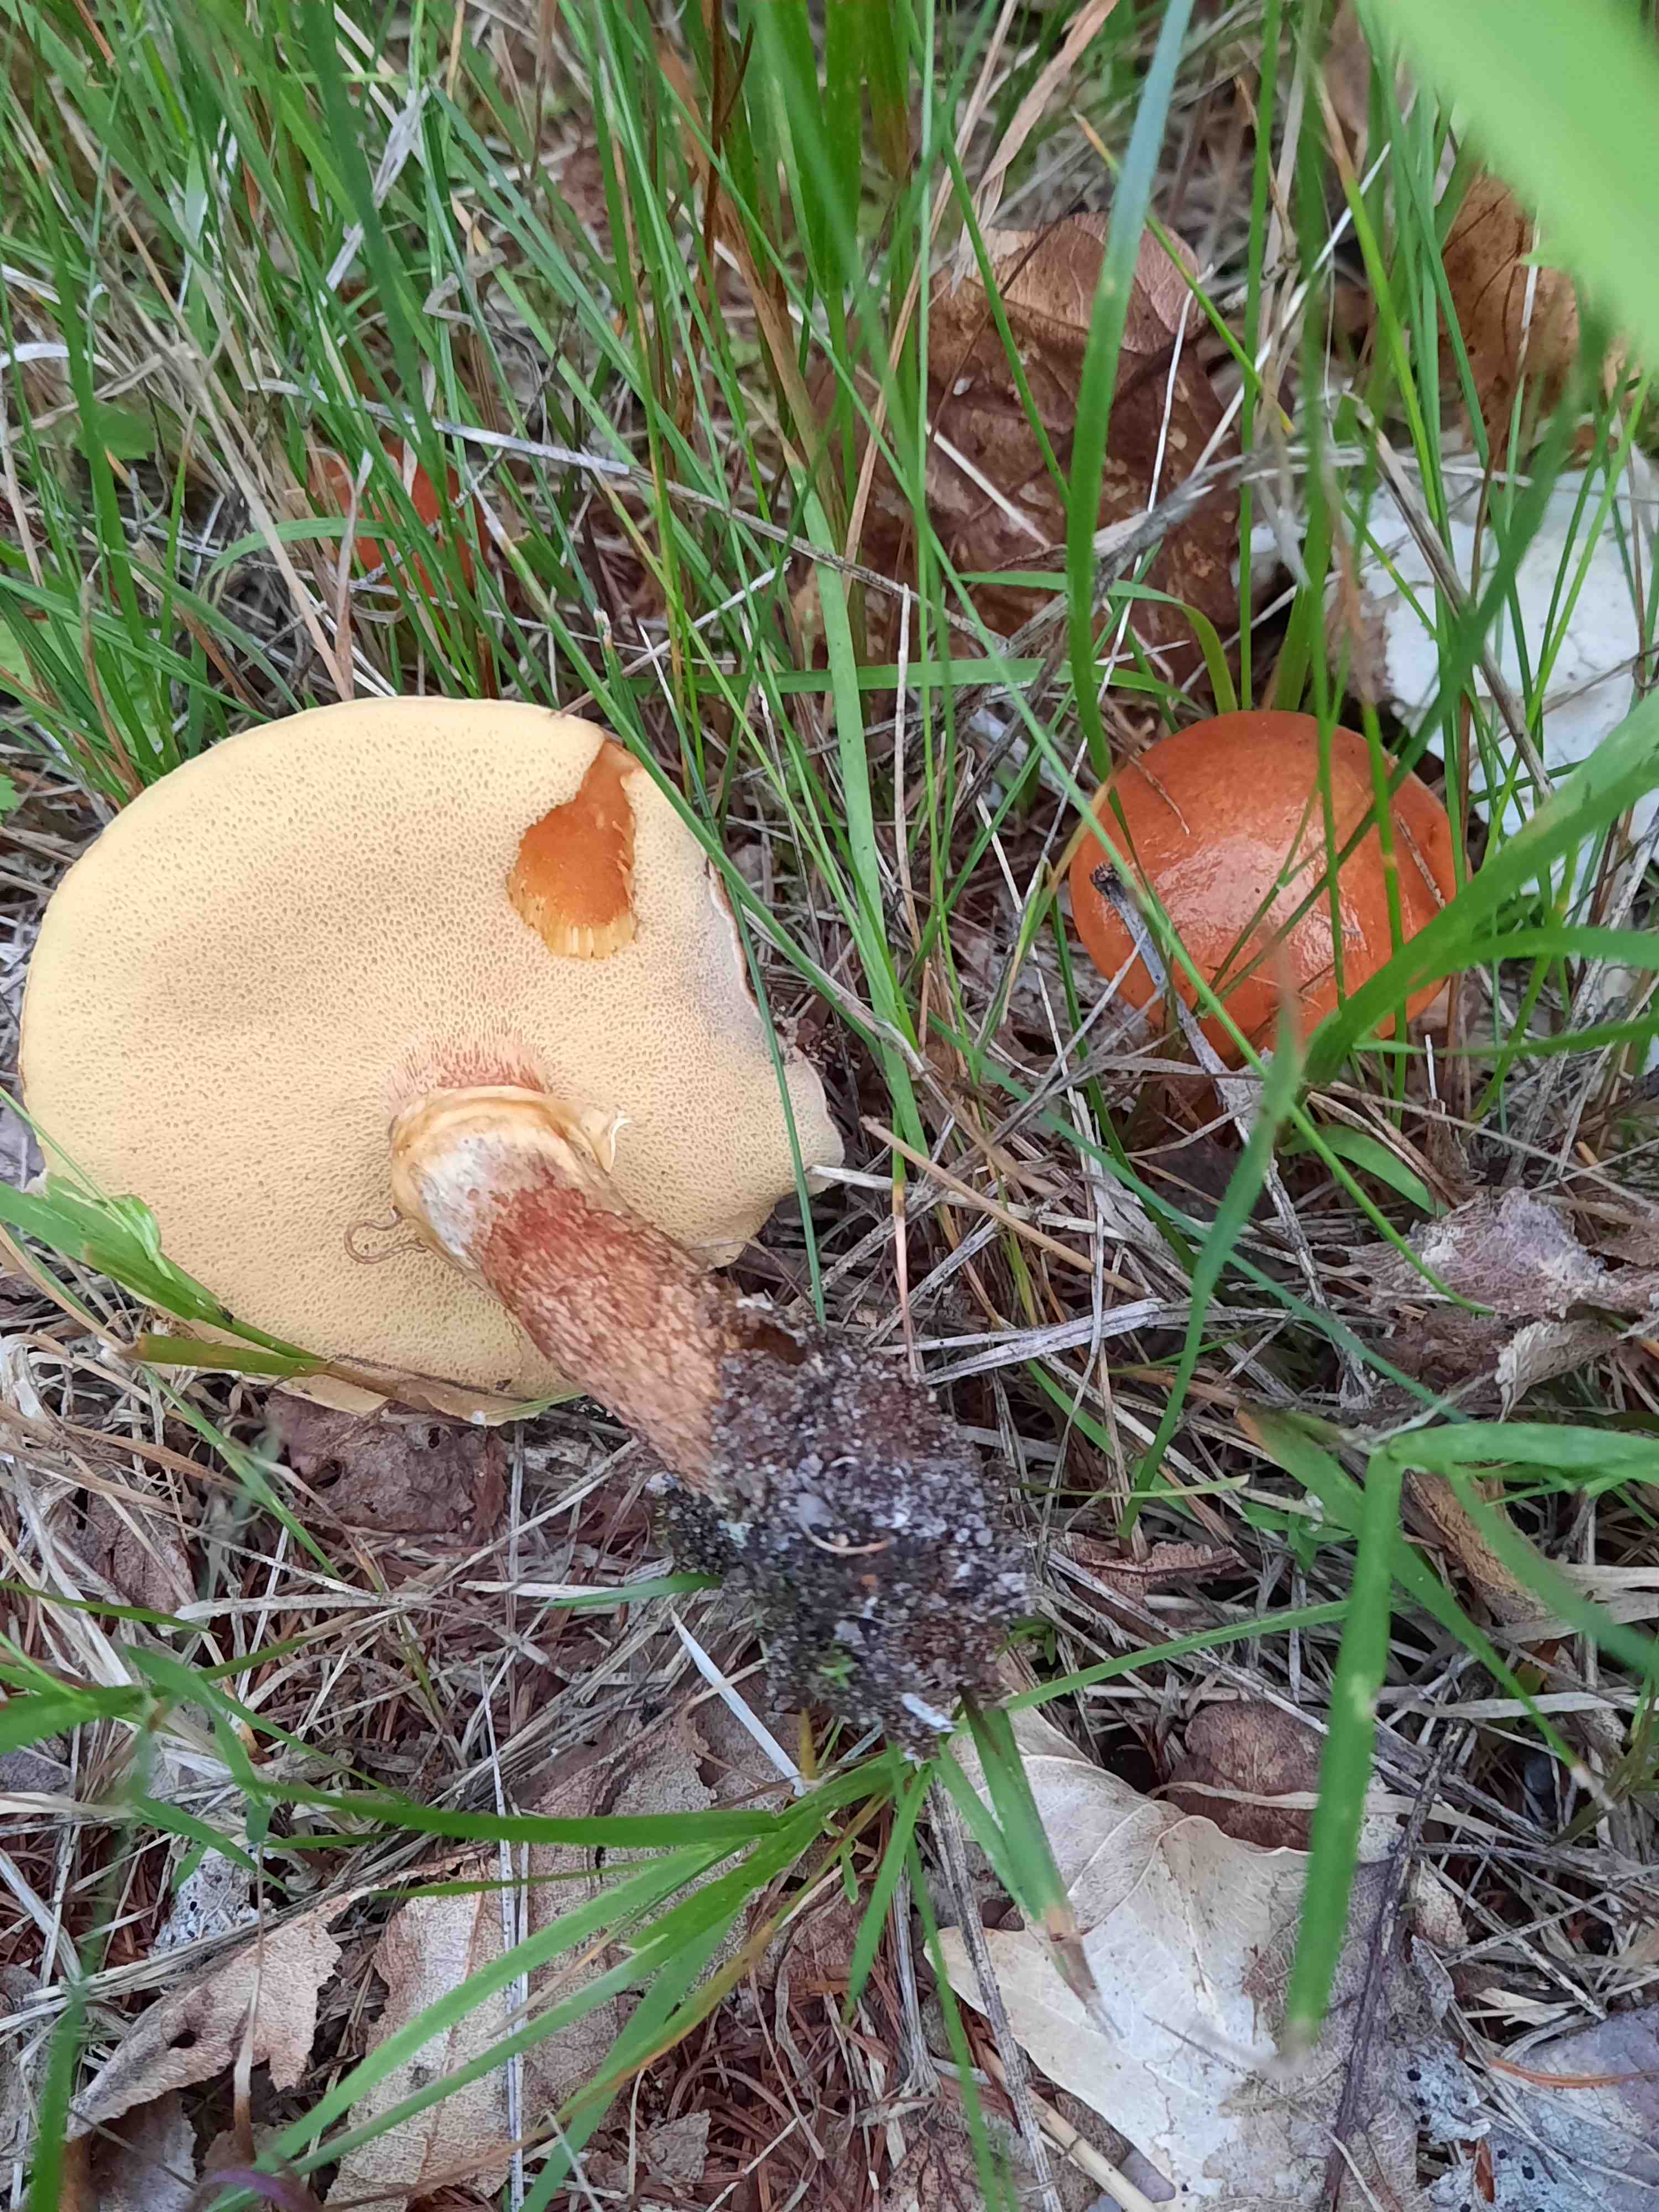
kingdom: Fungi
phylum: Basidiomycota
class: Agaricomycetes
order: Boletales
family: Suillaceae
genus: Suillus
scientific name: Suillus grevillei
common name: lærke-slimrørhat
